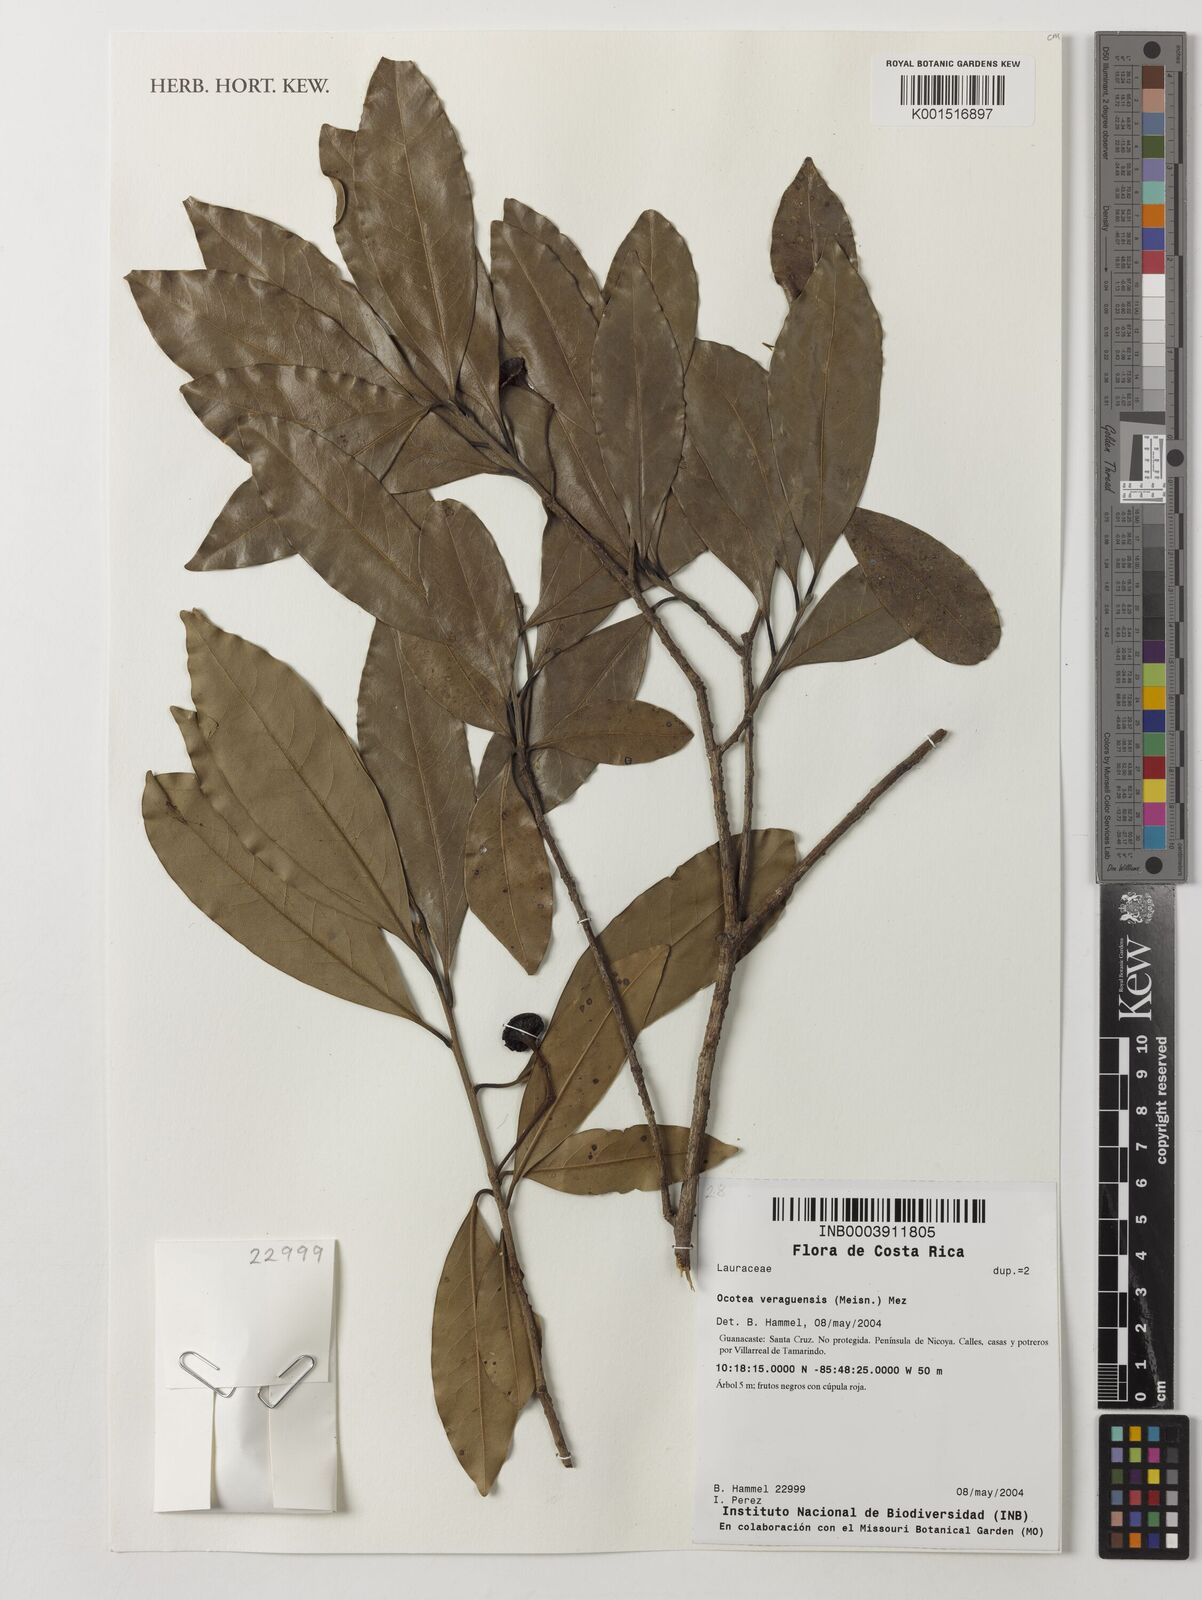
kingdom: Plantae
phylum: Tracheophyta
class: Magnoliopsida
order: Laurales
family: Lauraceae
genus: Mespilodaphne
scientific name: Mespilodaphne veraguensis
